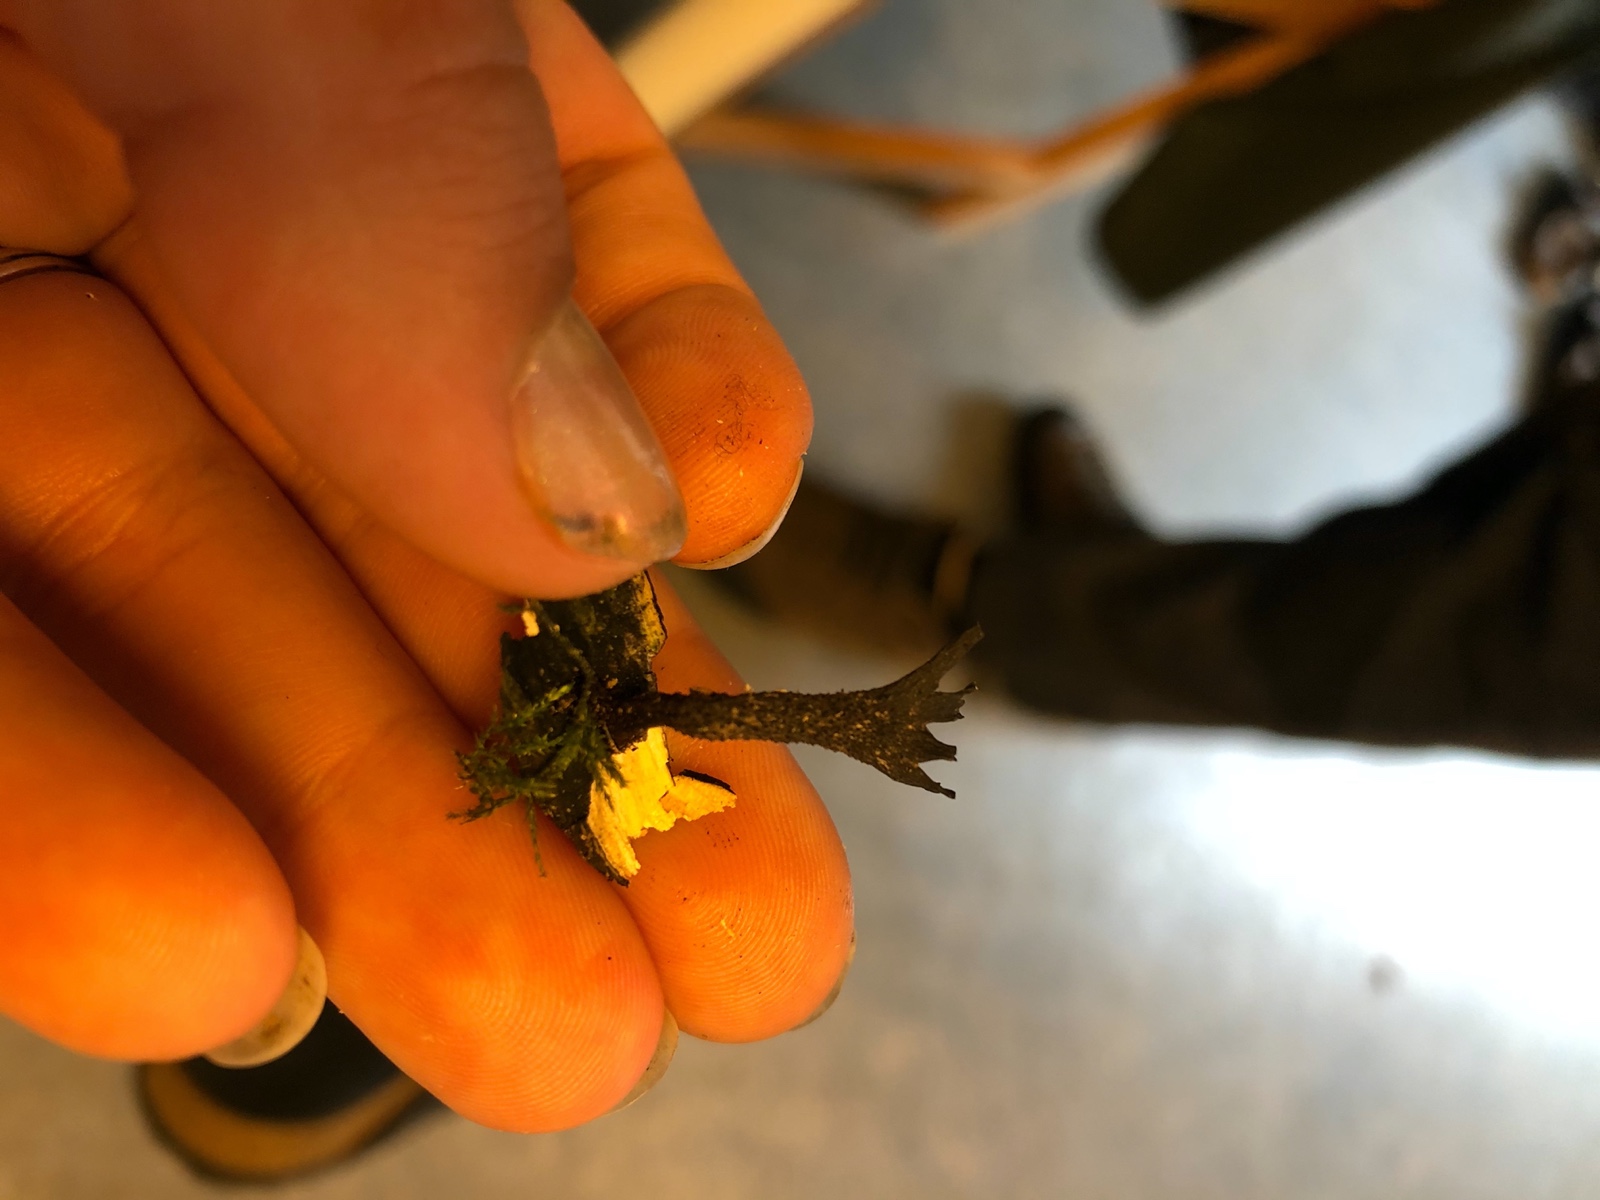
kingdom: Fungi
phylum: Ascomycota
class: Sordariomycetes
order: Xylariales
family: Xylariaceae
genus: Xylaria
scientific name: Xylaria hypoxylon
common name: grenet stødsvamp
